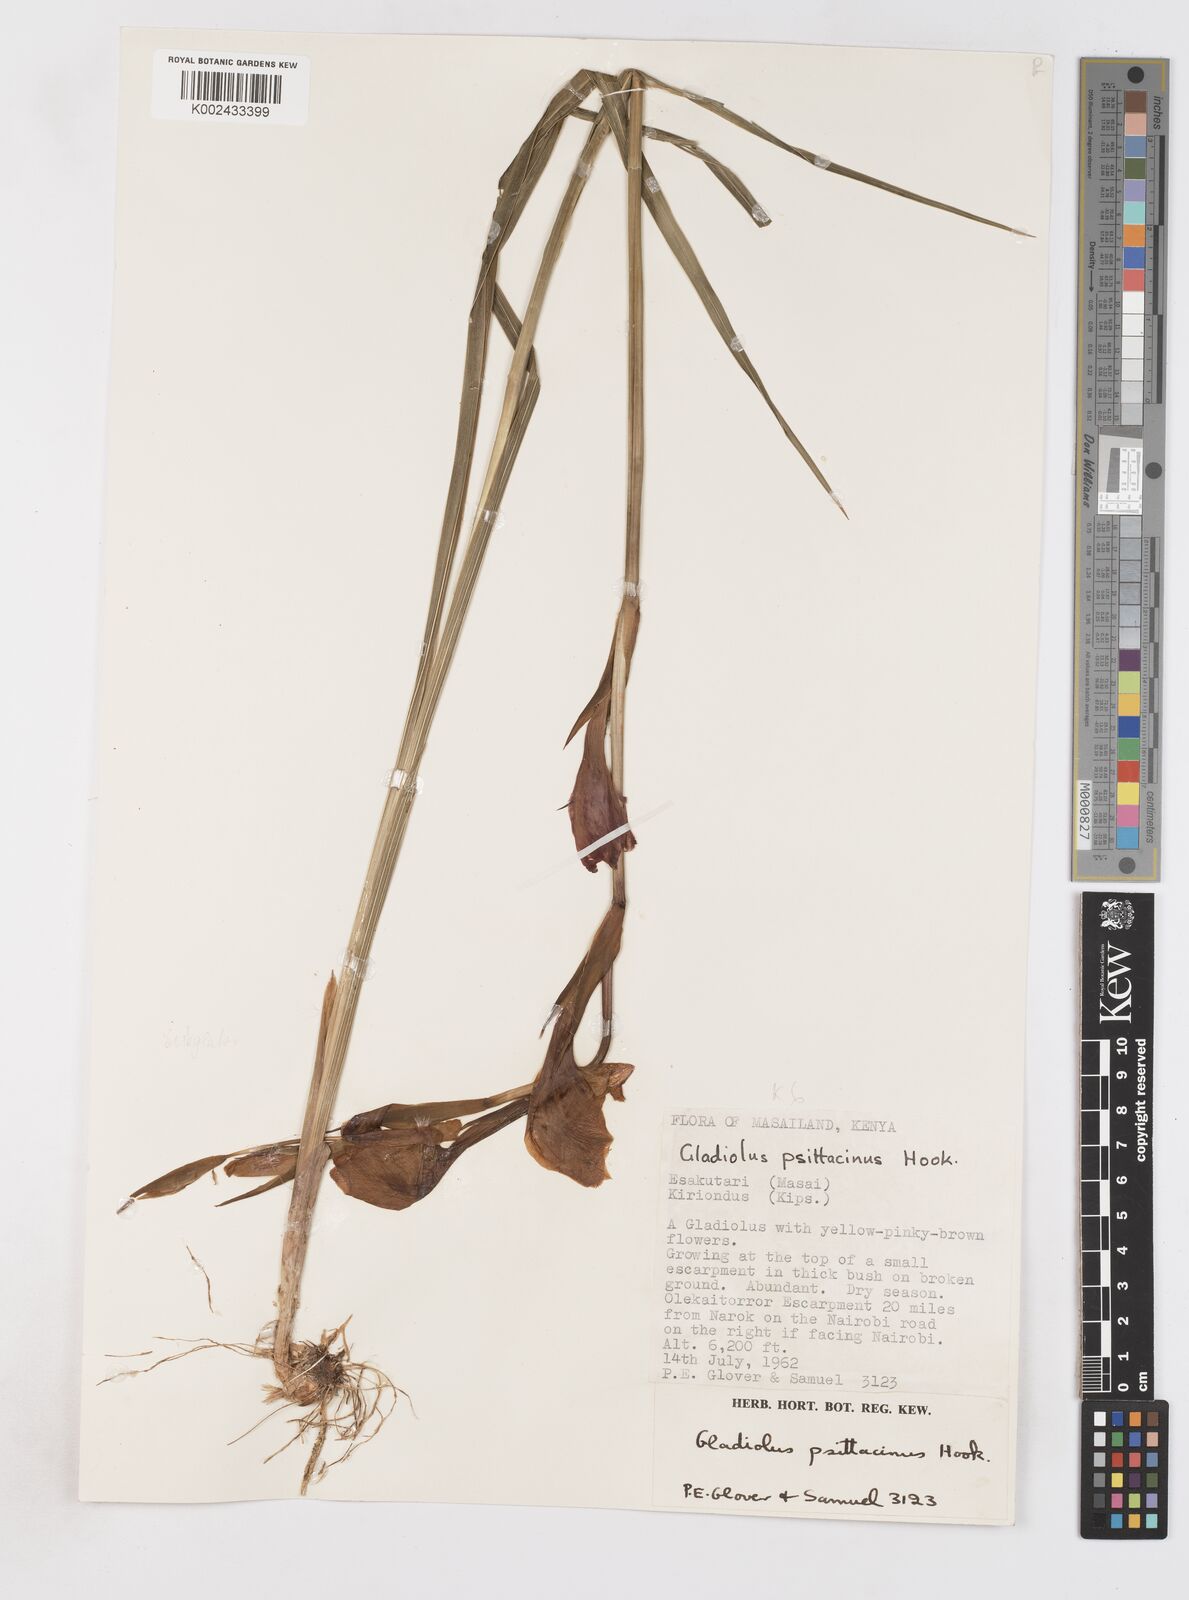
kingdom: Plantae
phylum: Tracheophyta
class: Liliopsida
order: Asparagales
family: Iridaceae
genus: Gladiolus
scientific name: Gladiolus dalenii
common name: Cornflag
